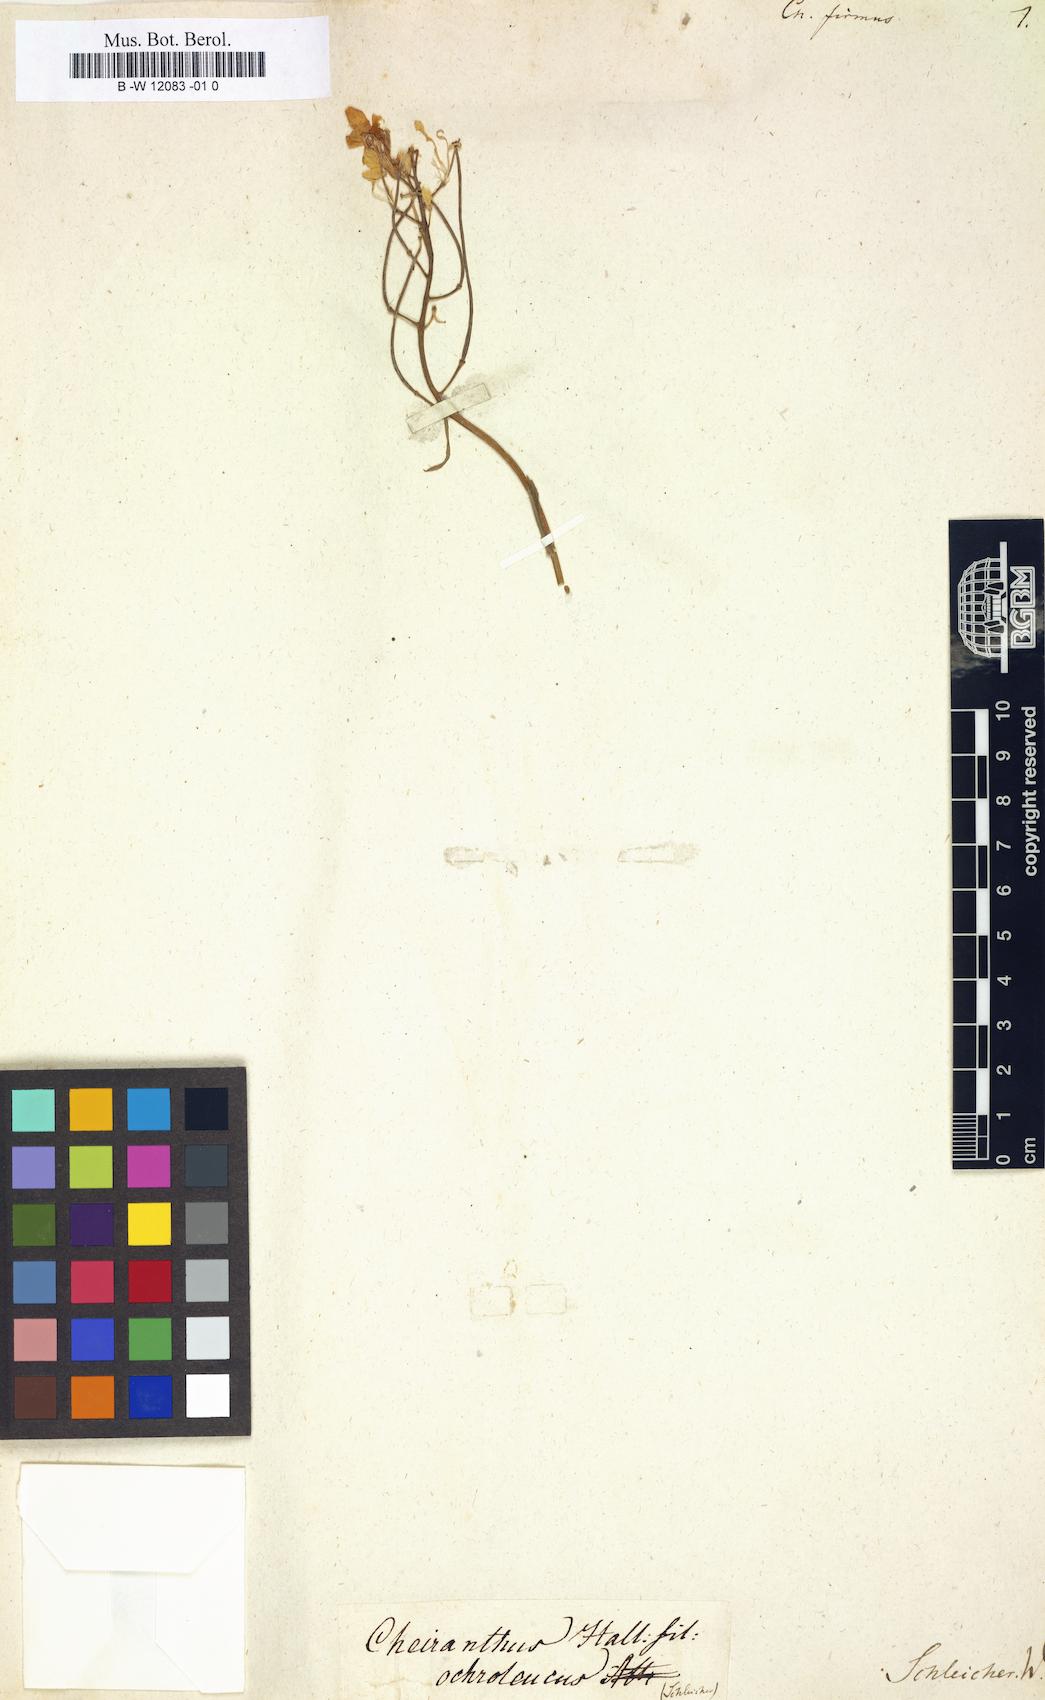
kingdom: Plantae
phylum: Tracheophyta
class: Magnoliopsida
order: Brassicales
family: Brassicaceae
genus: Erysimum
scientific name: Erysimum
